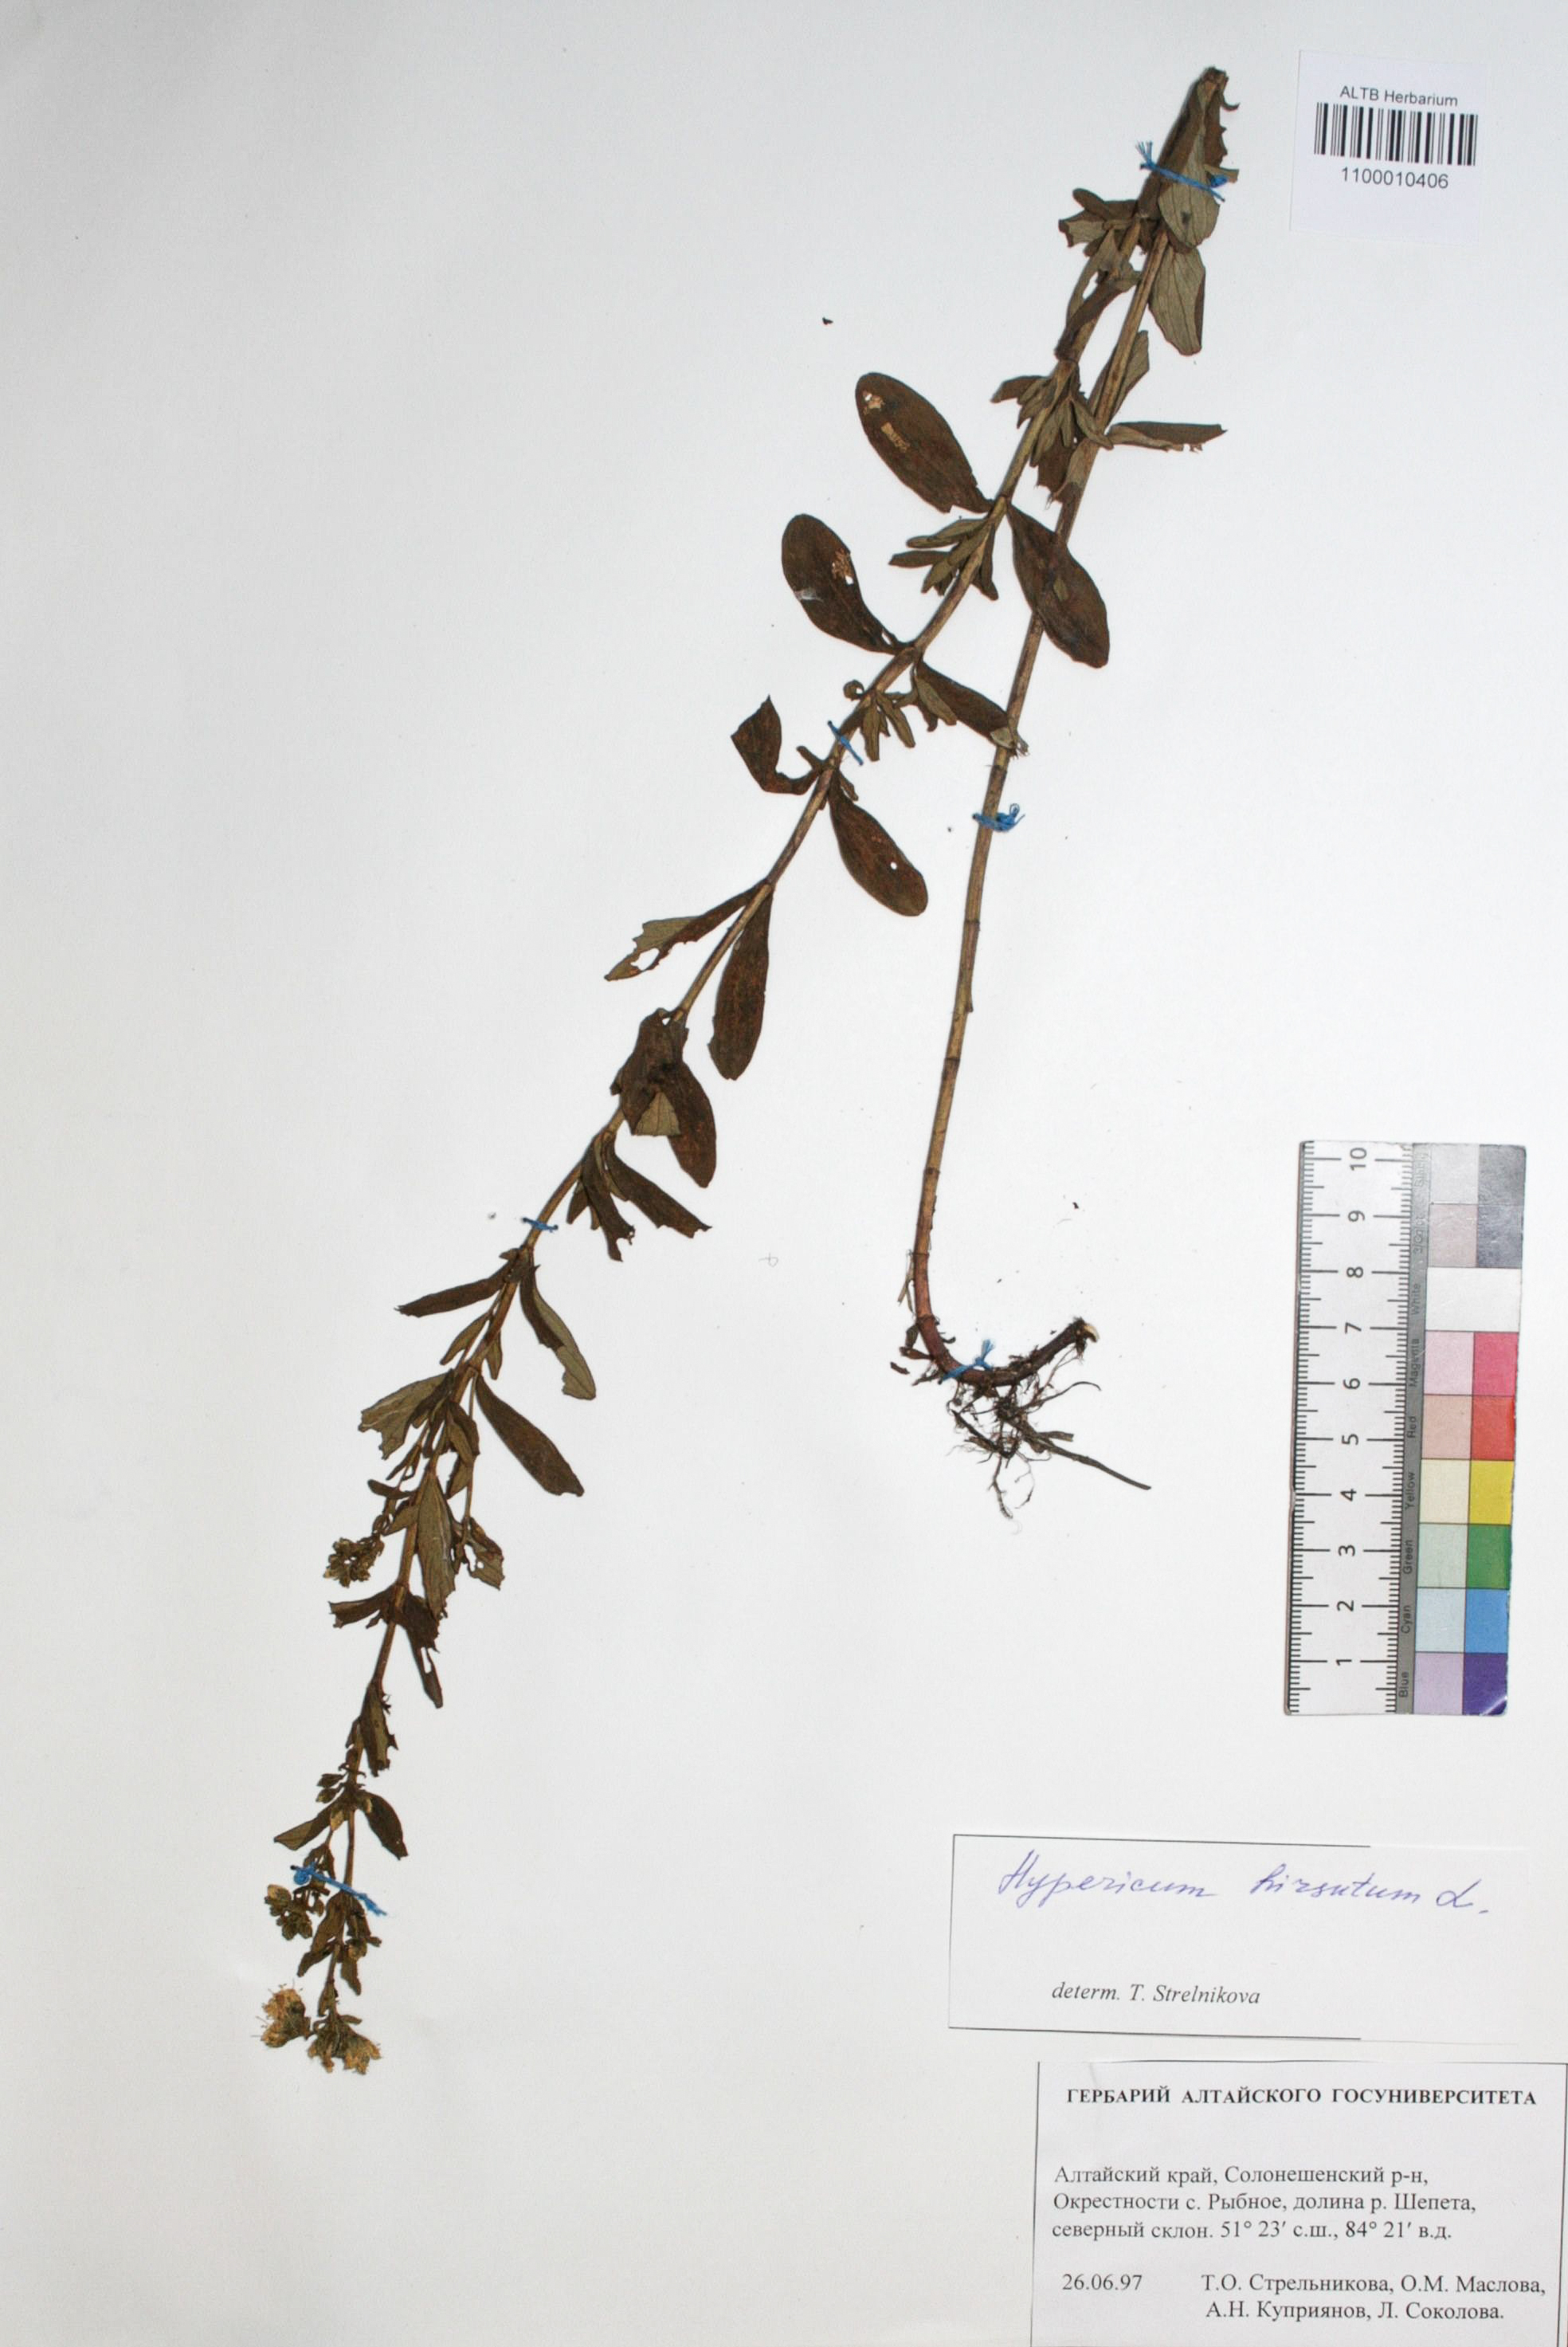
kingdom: Plantae
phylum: Tracheophyta
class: Magnoliopsida
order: Malpighiales
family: Hypericaceae
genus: Hypericum
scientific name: Hypericum hirsutum
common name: Hairy st. john's-wort
